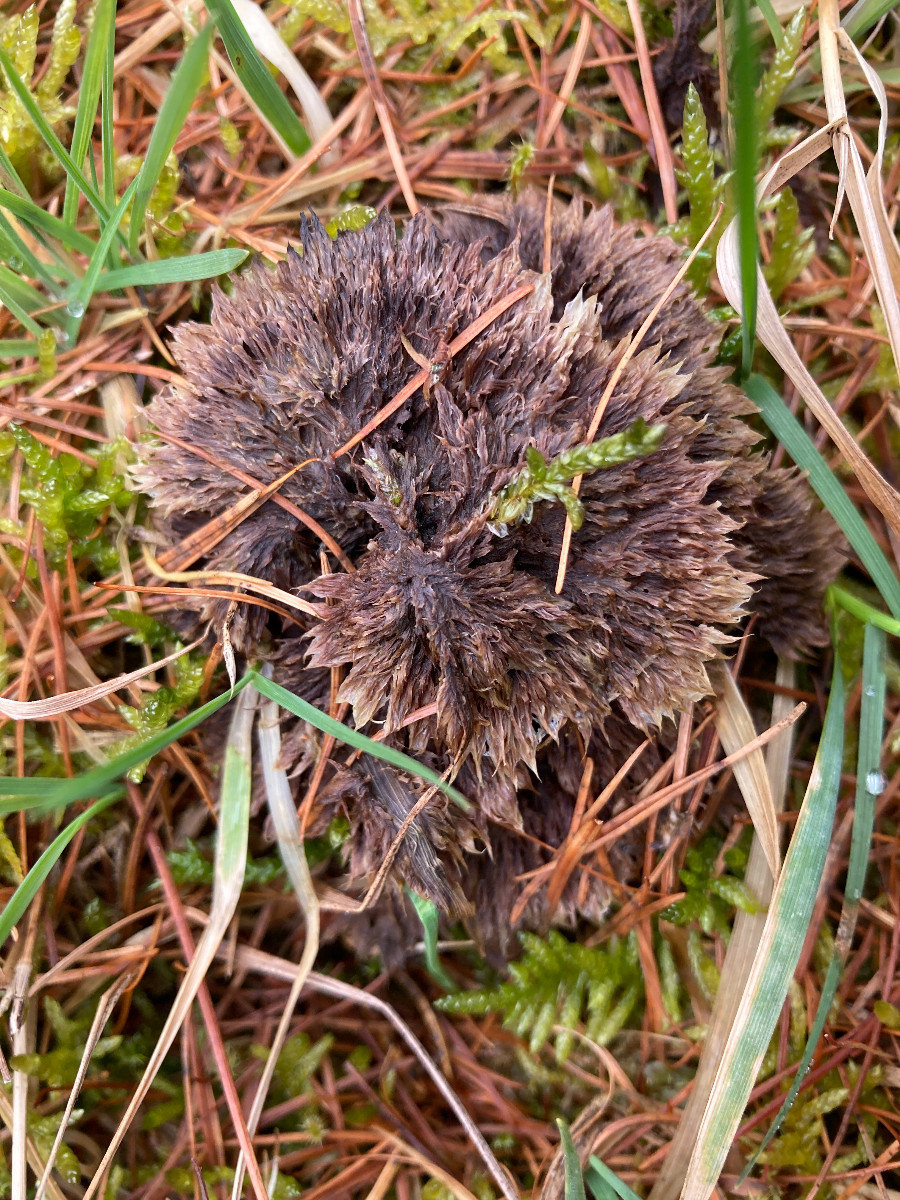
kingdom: Fungi
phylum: Basidiomycota
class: Agaricomycetes
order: Thelephorales
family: Thelephoraceae
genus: Thelephora
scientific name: Thelephora terrestris
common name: fliget frynsesvamp
